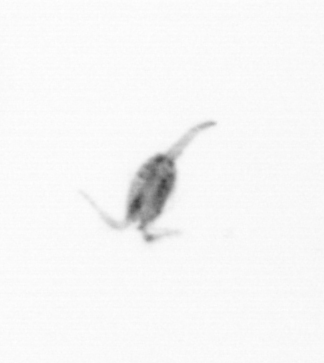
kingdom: Animalia
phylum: Arthropoda
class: Copepoda
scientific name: Copepoda
